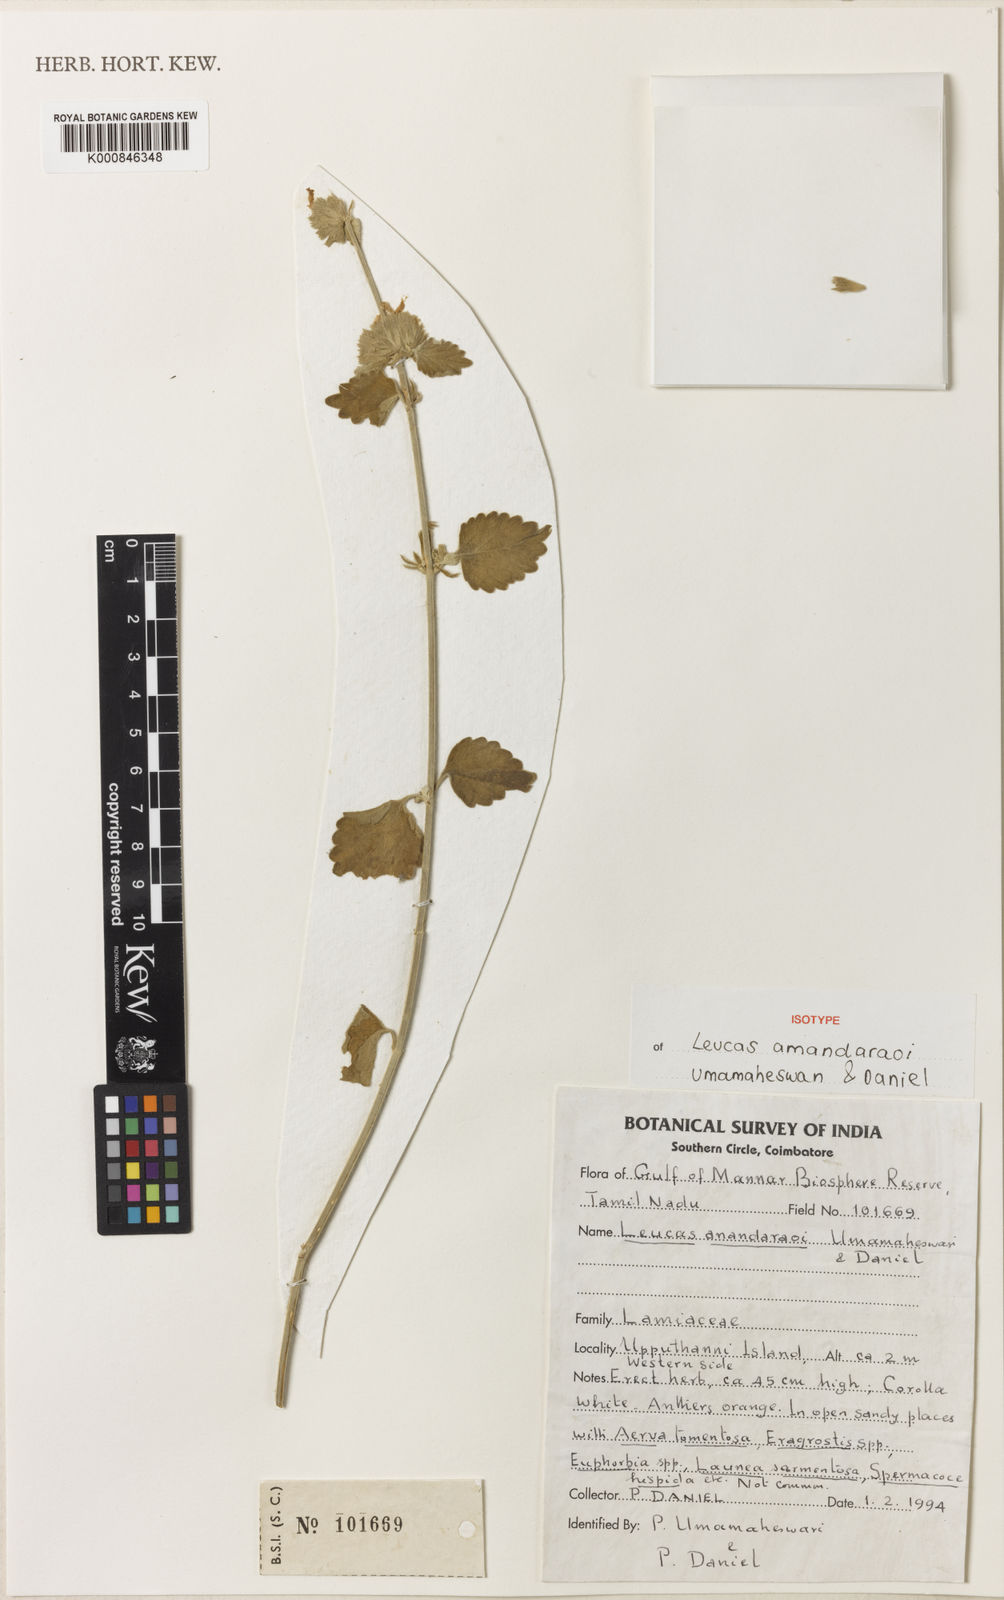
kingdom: Plantae
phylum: Tracheophyta
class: Magnoliopsida
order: Lamiales
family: Lamiaceae
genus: Leucas
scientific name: Leucas anandaraoana
